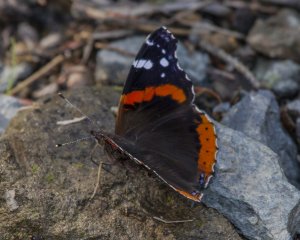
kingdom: Animalia
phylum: Arthropoda
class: Insecta
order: Lepidoptera
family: Nymphalidae
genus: Vanessa
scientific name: Vanessa atalanta
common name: Red Admiral
